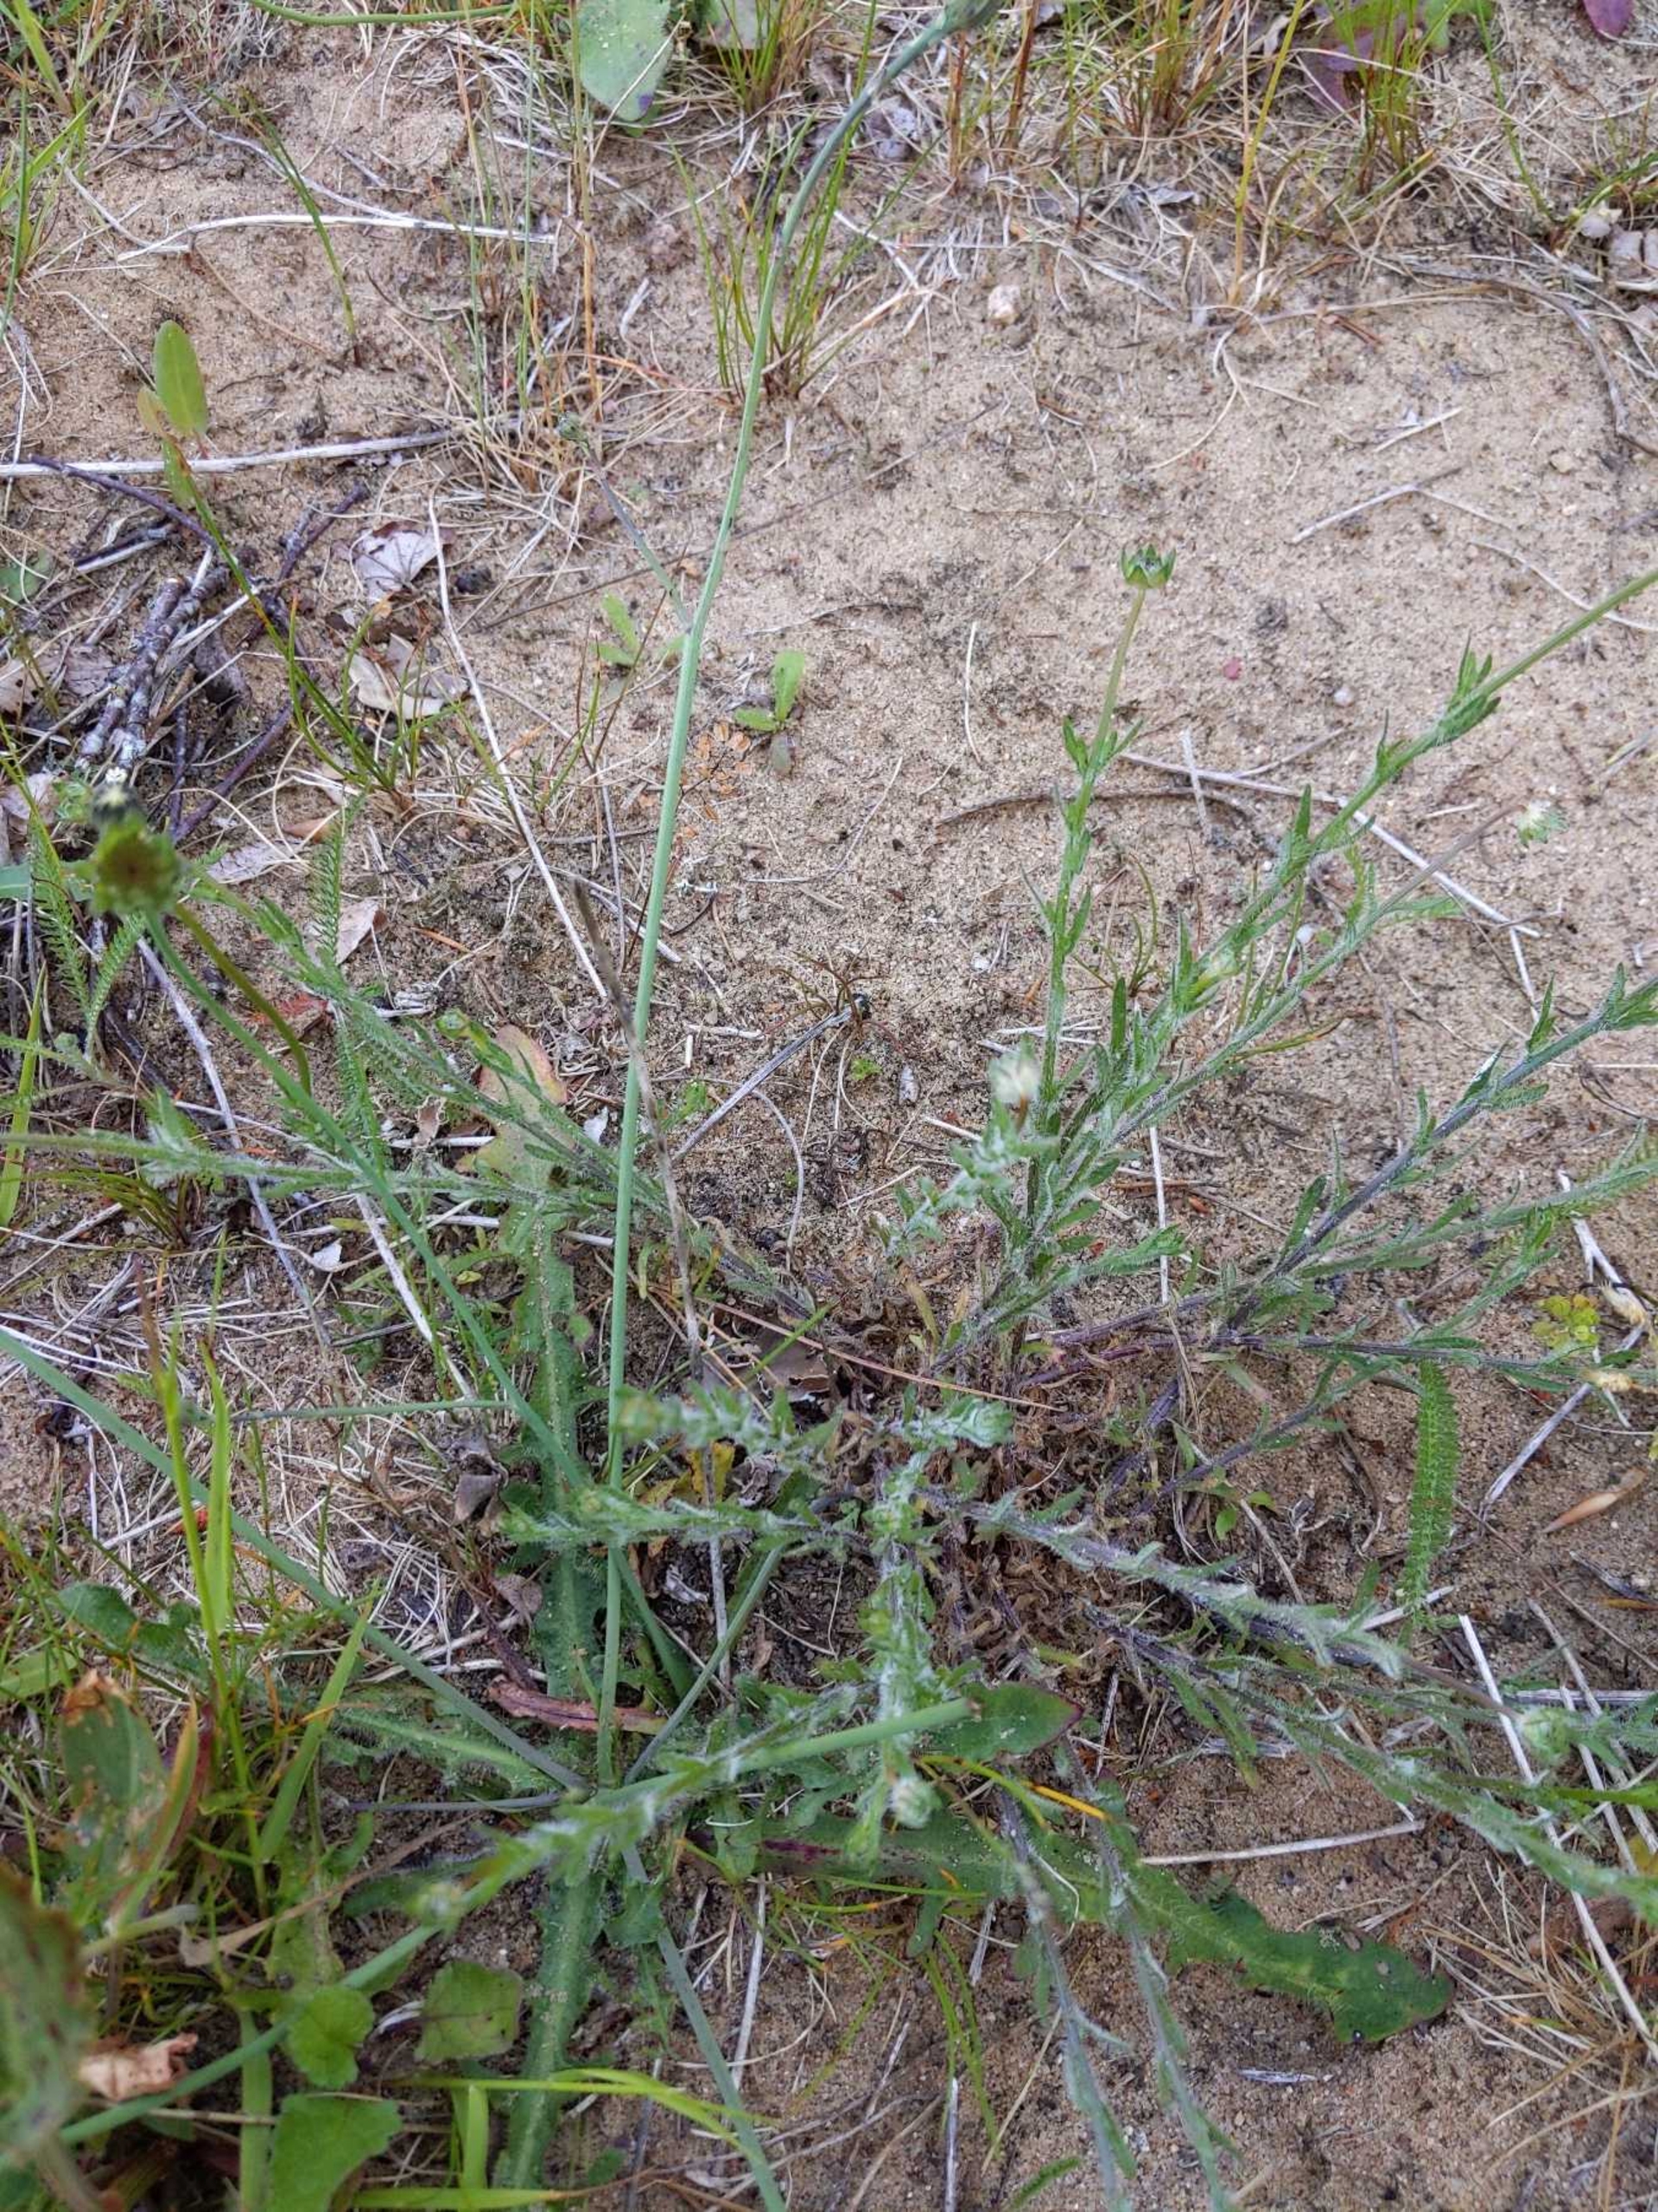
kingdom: Plantae
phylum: Tracheophyta
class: Magnoliopsida
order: Asterales
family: Campanulaceae
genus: Jasione
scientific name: Jasione montana
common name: Blåmunke
